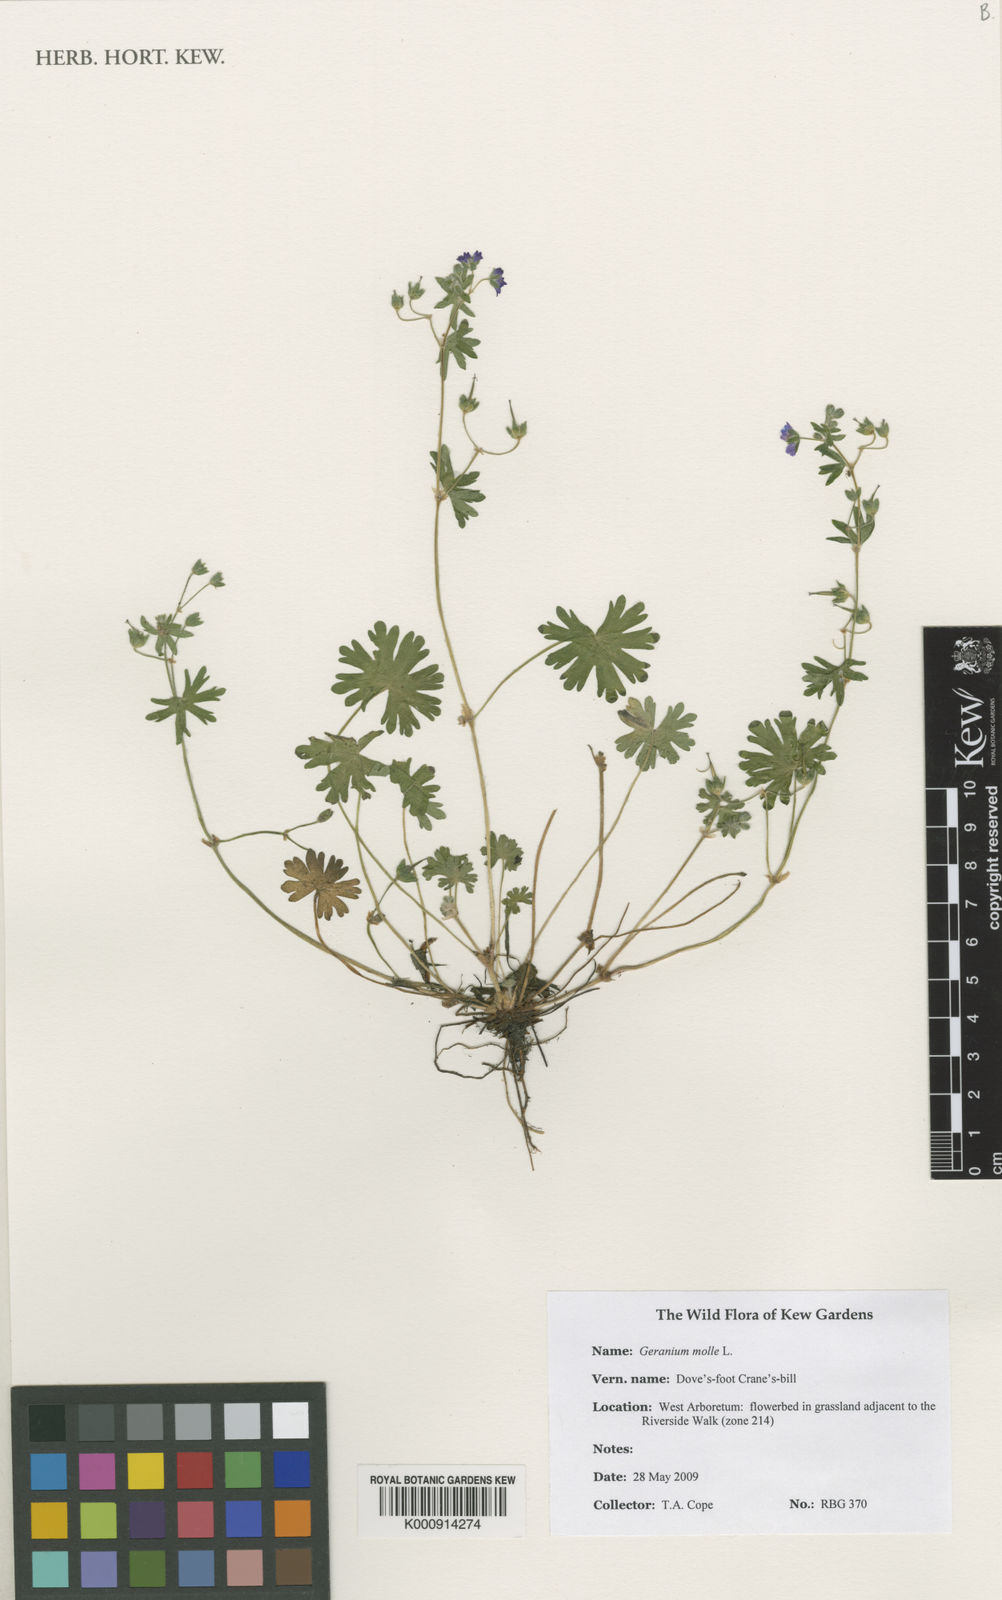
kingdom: Plantae
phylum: Tracheophyta
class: Magnoliopsida
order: Geraniales
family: Geraniaceae
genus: Geranium
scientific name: Geranium molle
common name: Dove's-foot crane's-bill
